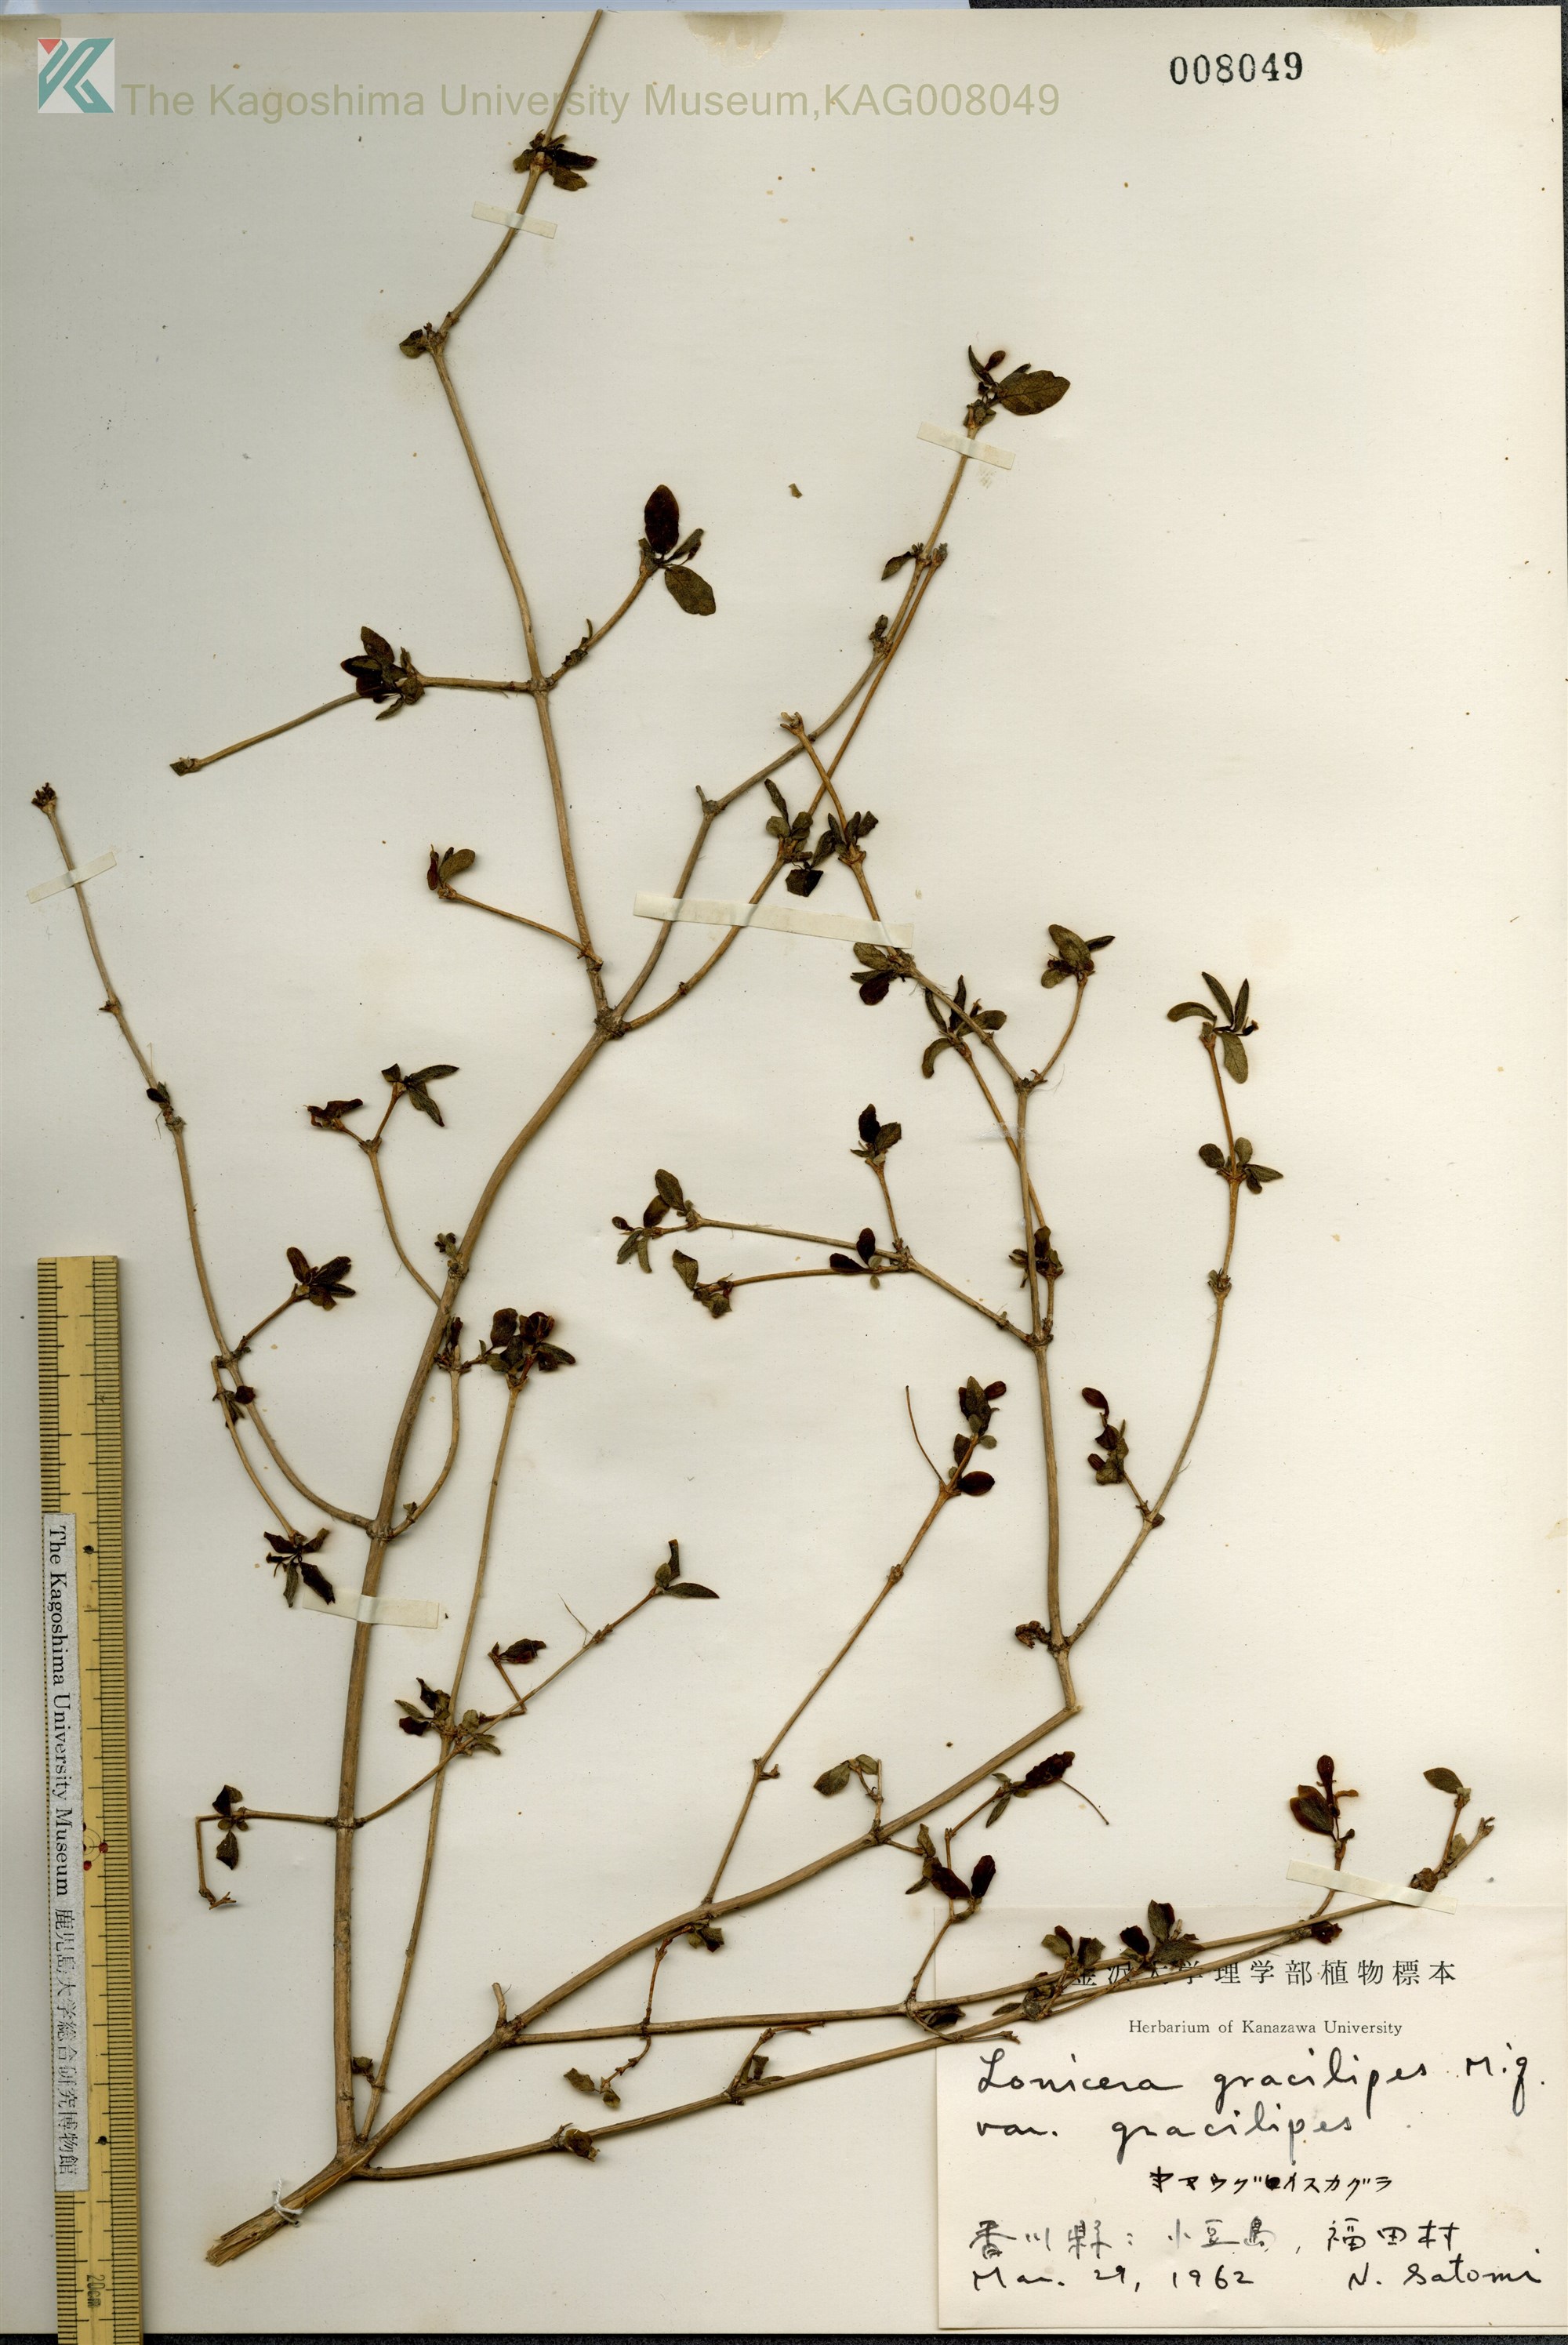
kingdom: Plantae
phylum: Tracheophyta
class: Magnoliopsida
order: Dipsacales
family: Caprifoliaceae
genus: Lonicera
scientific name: Lonicera gracilipes
